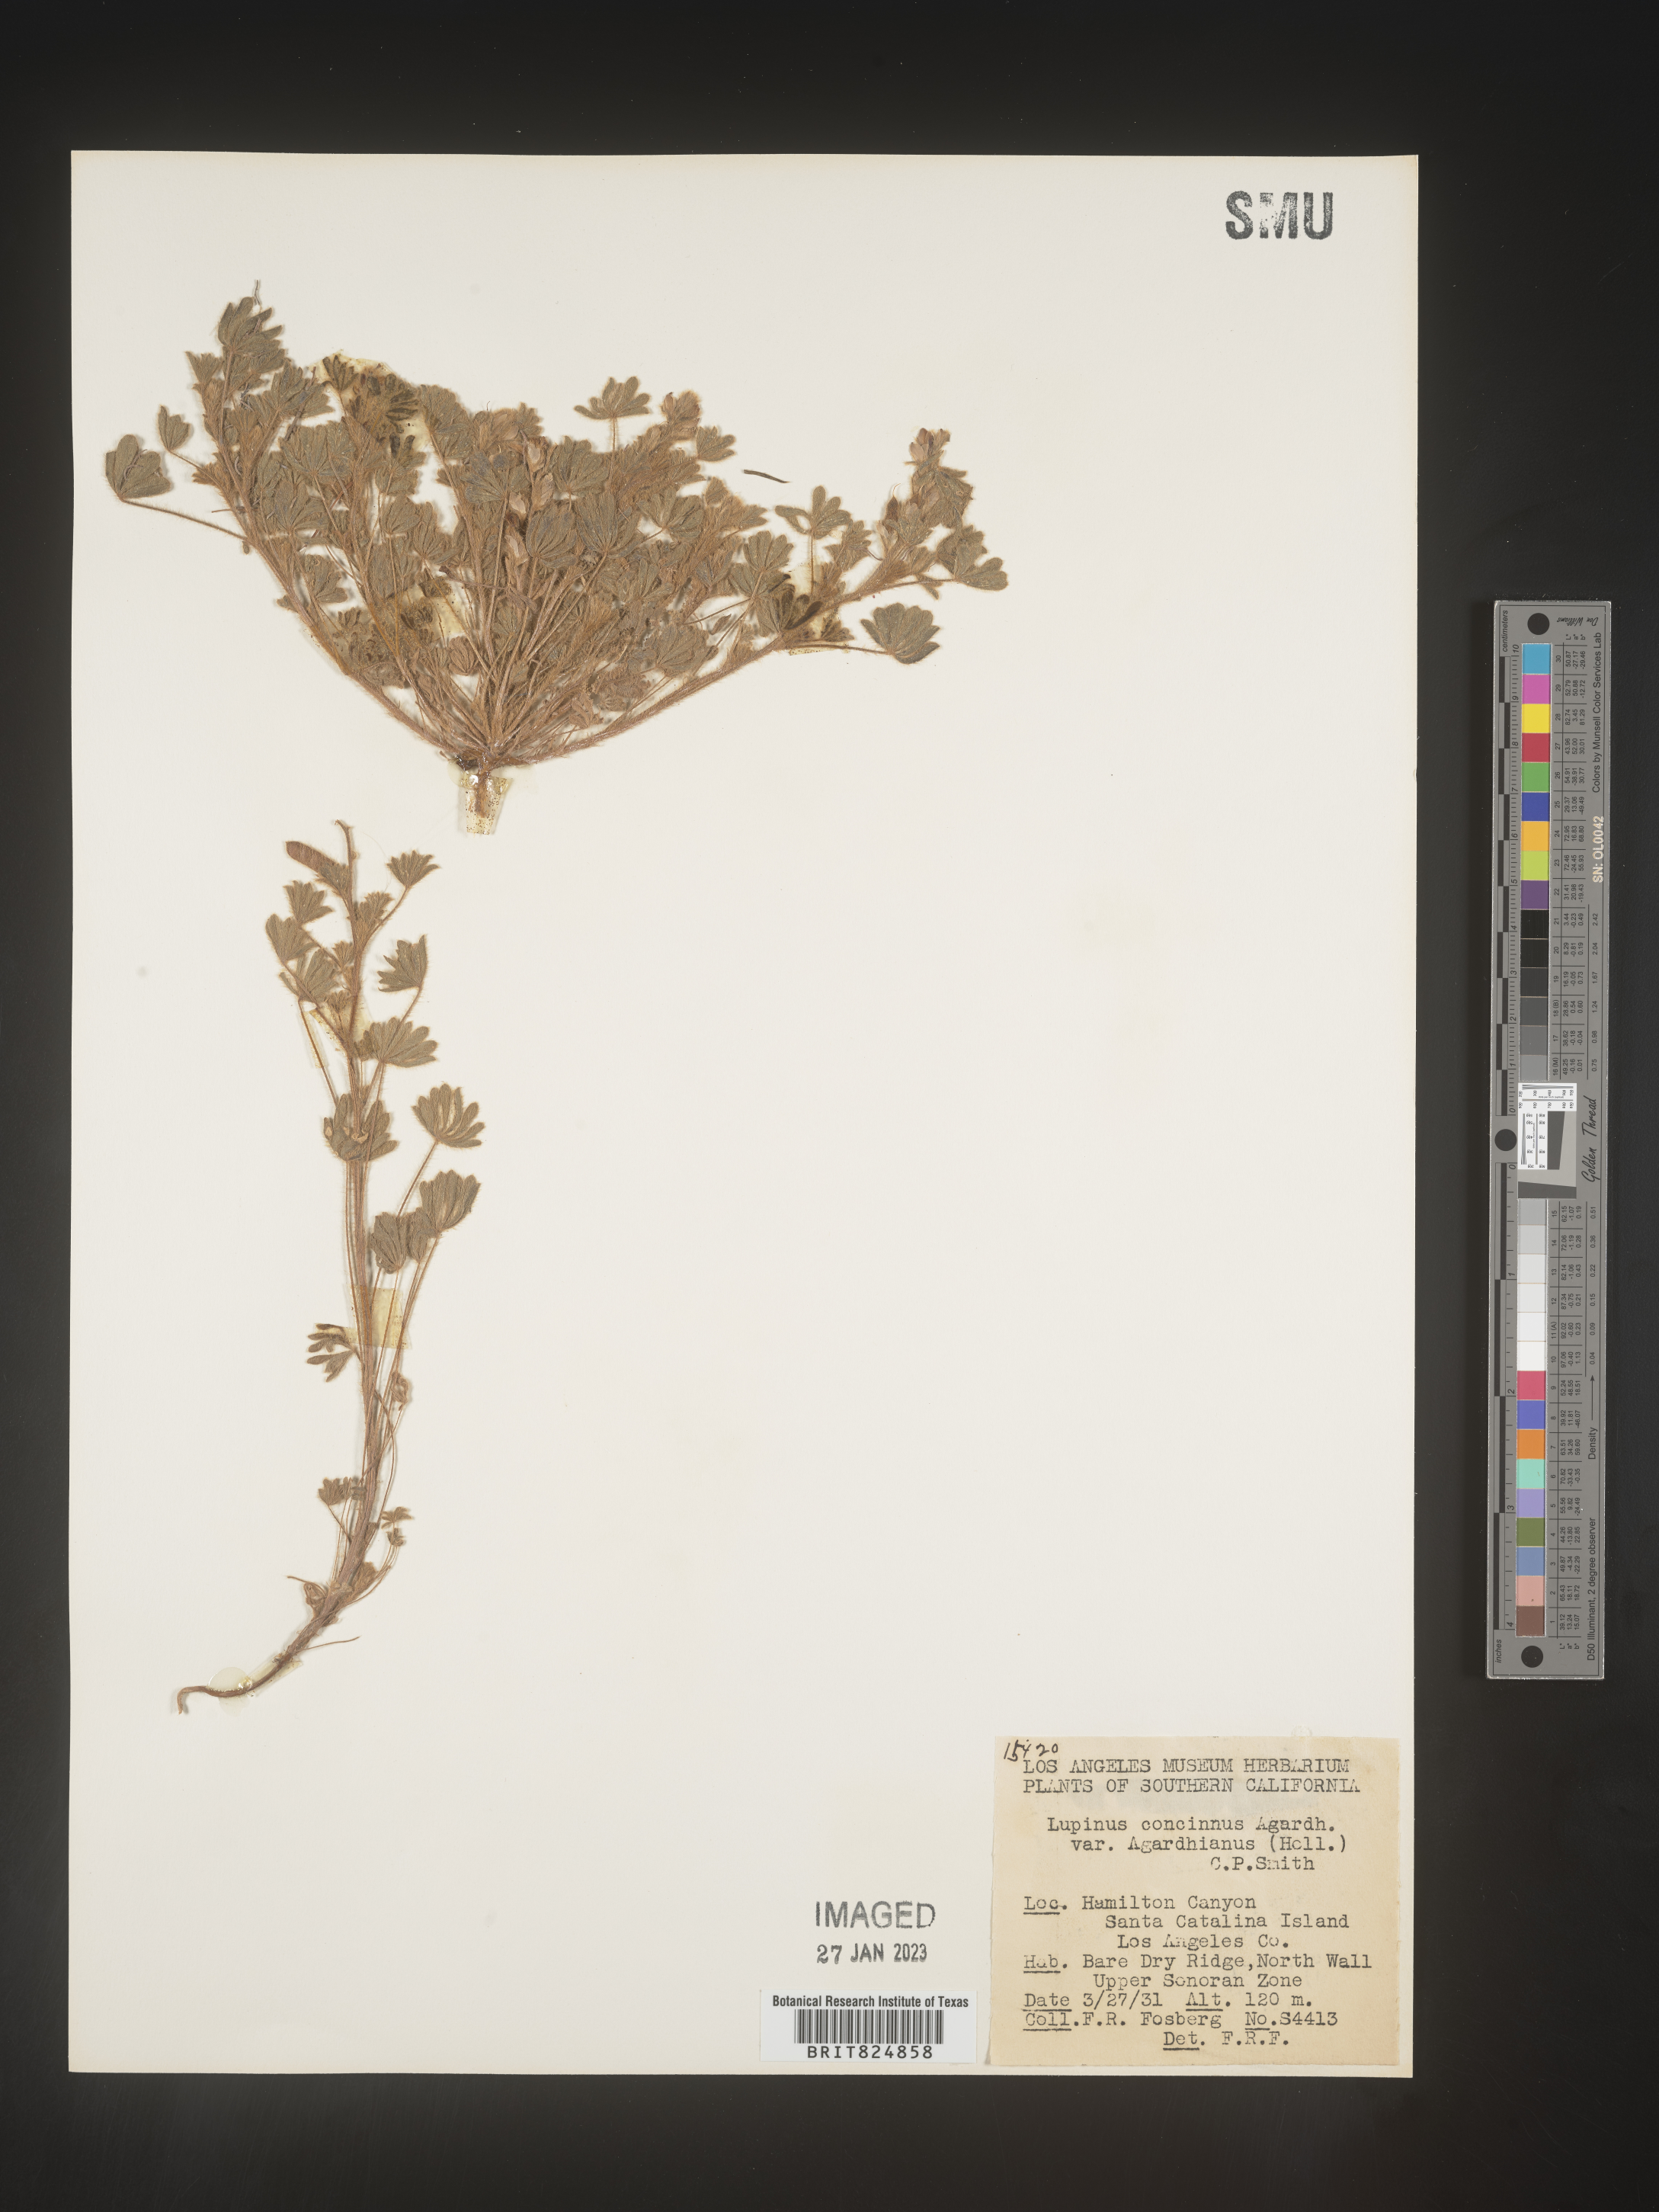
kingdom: Plantae
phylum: Tracheophyta
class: Magnoliopsida
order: Fabales
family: Fabaceae
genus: Lupinus
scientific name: Lupinus
